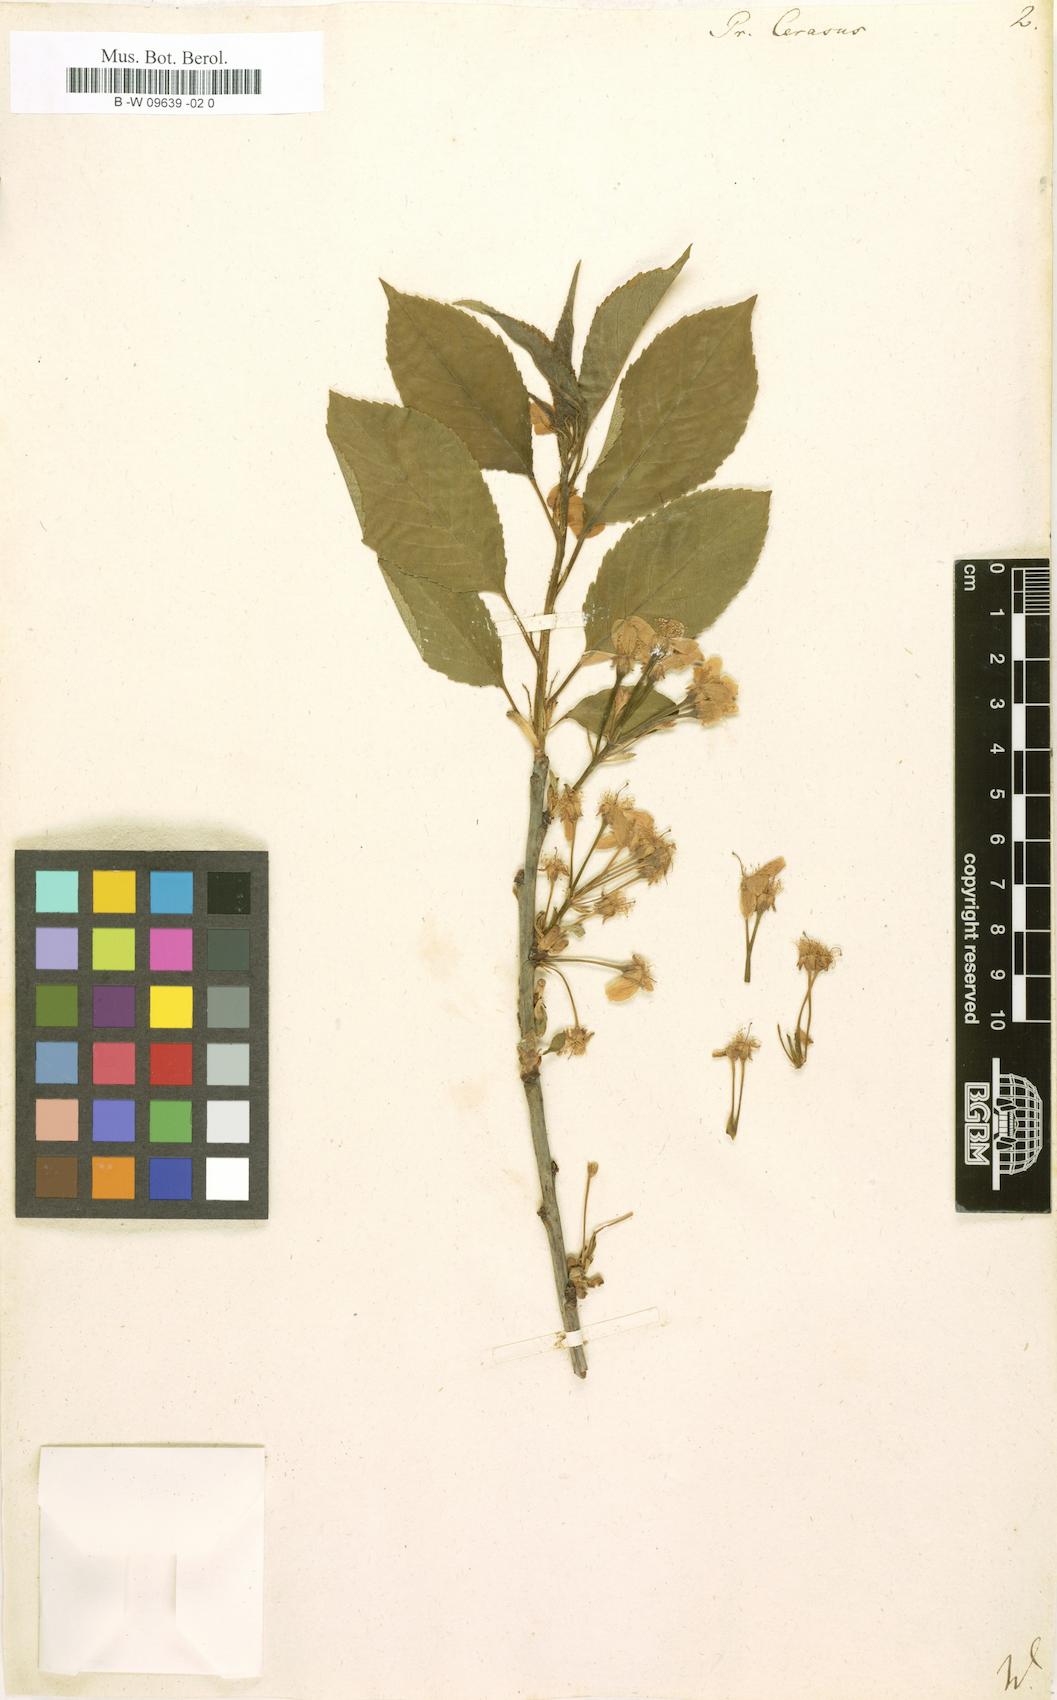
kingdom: Plantae
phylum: Tracheophyta
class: Magnoliopsida
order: Rosales
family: Rosaceae
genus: Prunus
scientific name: Prunus cerasus
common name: Morello cherry
